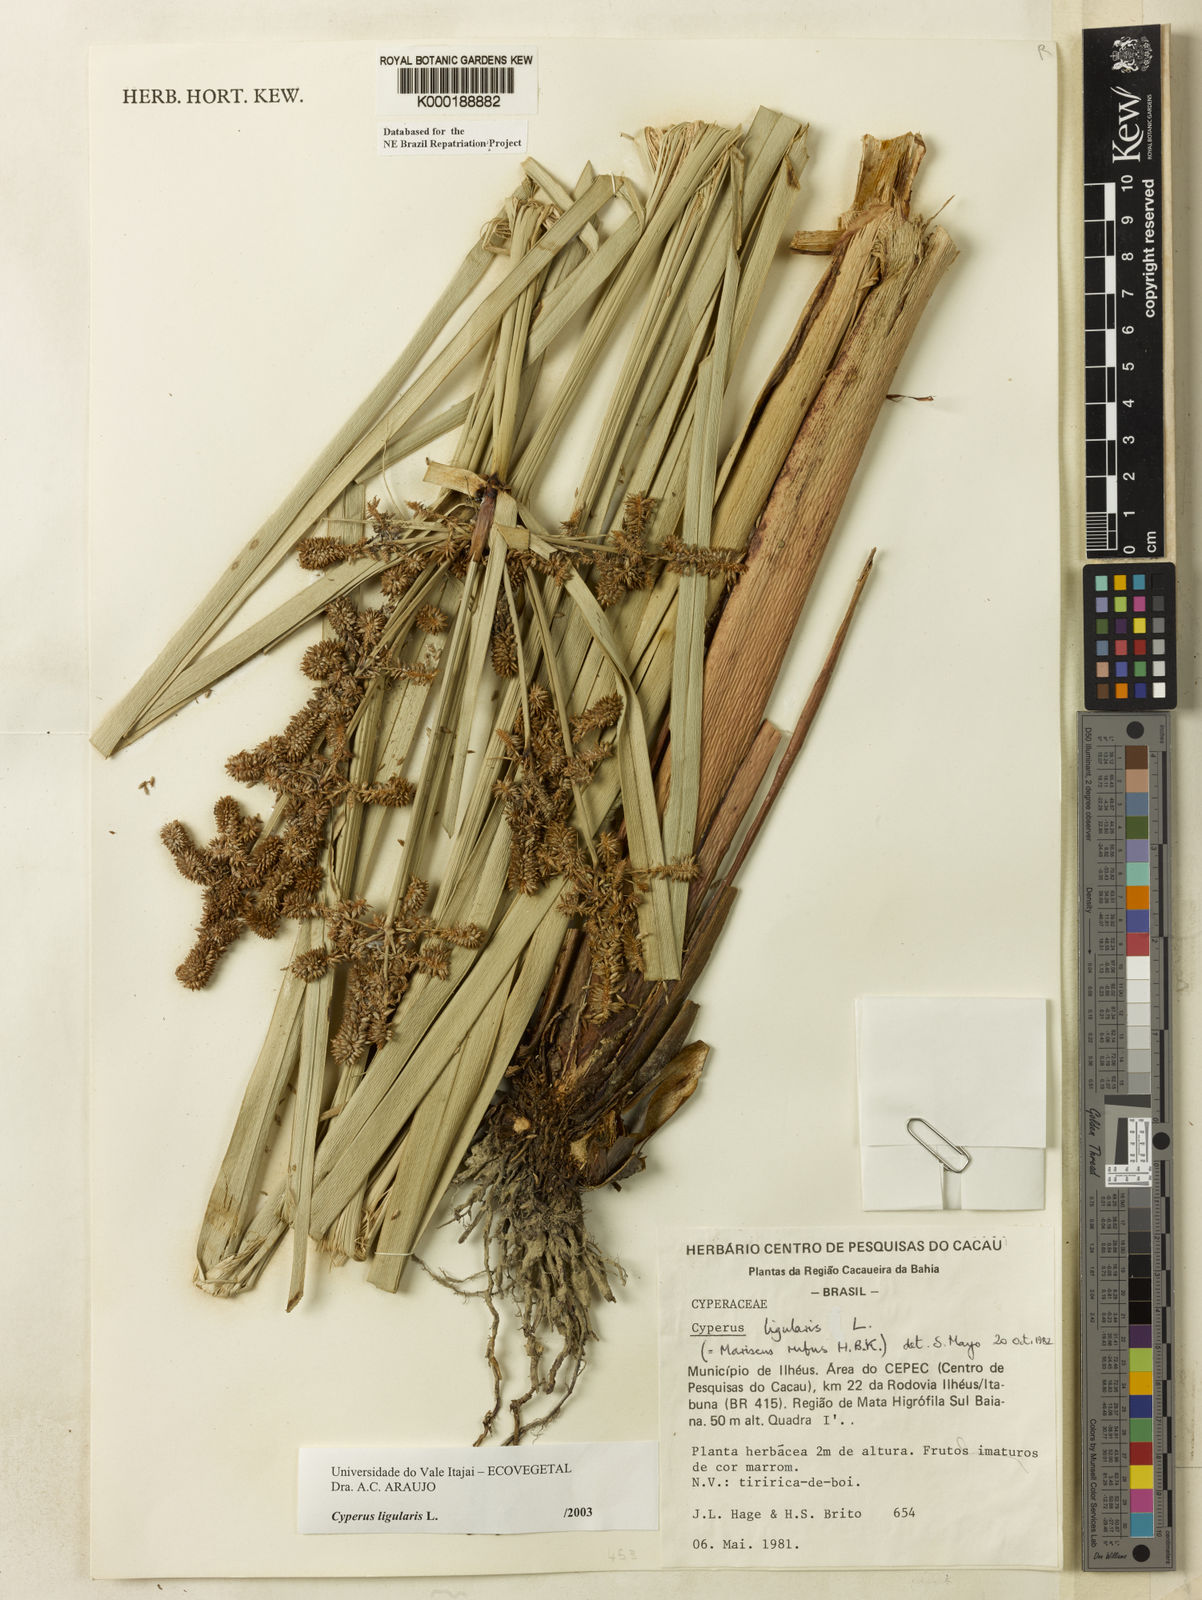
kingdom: Plantae
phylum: Tracheophyta
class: Liliopsida
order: Poales
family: Cyperaceae
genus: Cyperus
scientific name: Cyperus ligularis
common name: Swamp flat sedge
